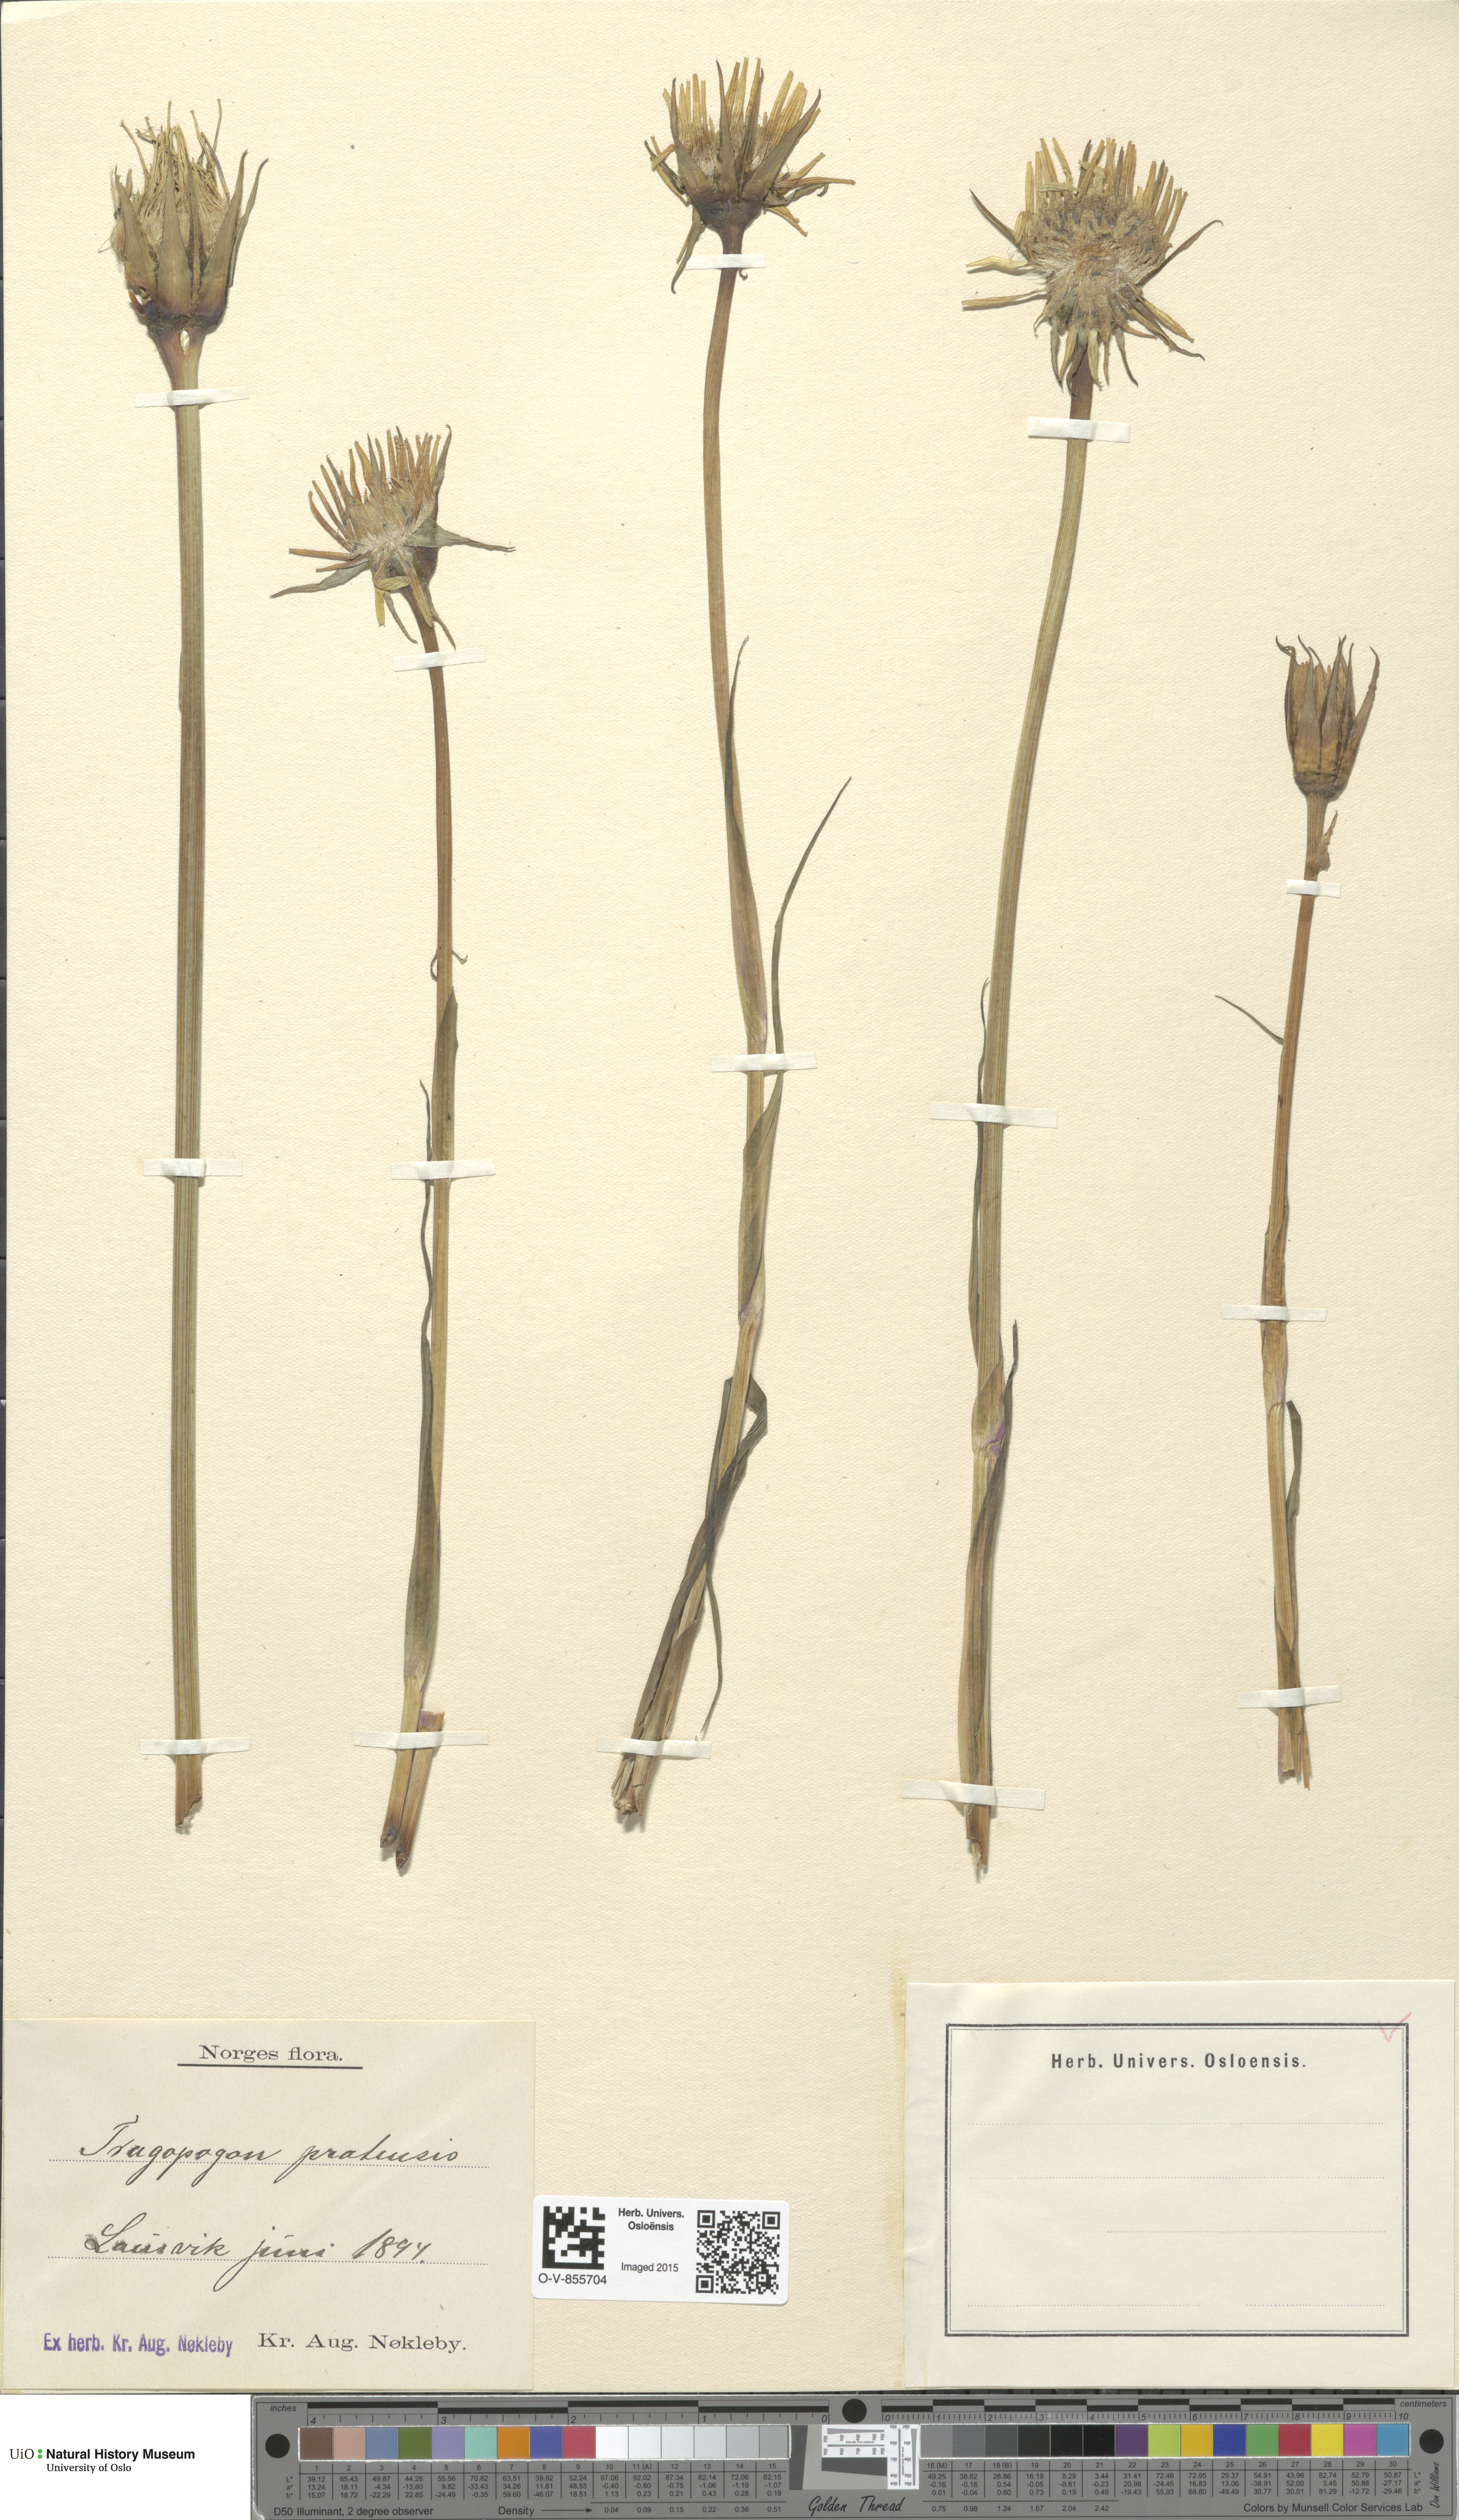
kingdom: Plantae
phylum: Tracheophyta
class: Magnoliopsida
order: Asterales
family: Asteraceae
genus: Tragopogon
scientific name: Tragopogon pratensis
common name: Goat's-beard
